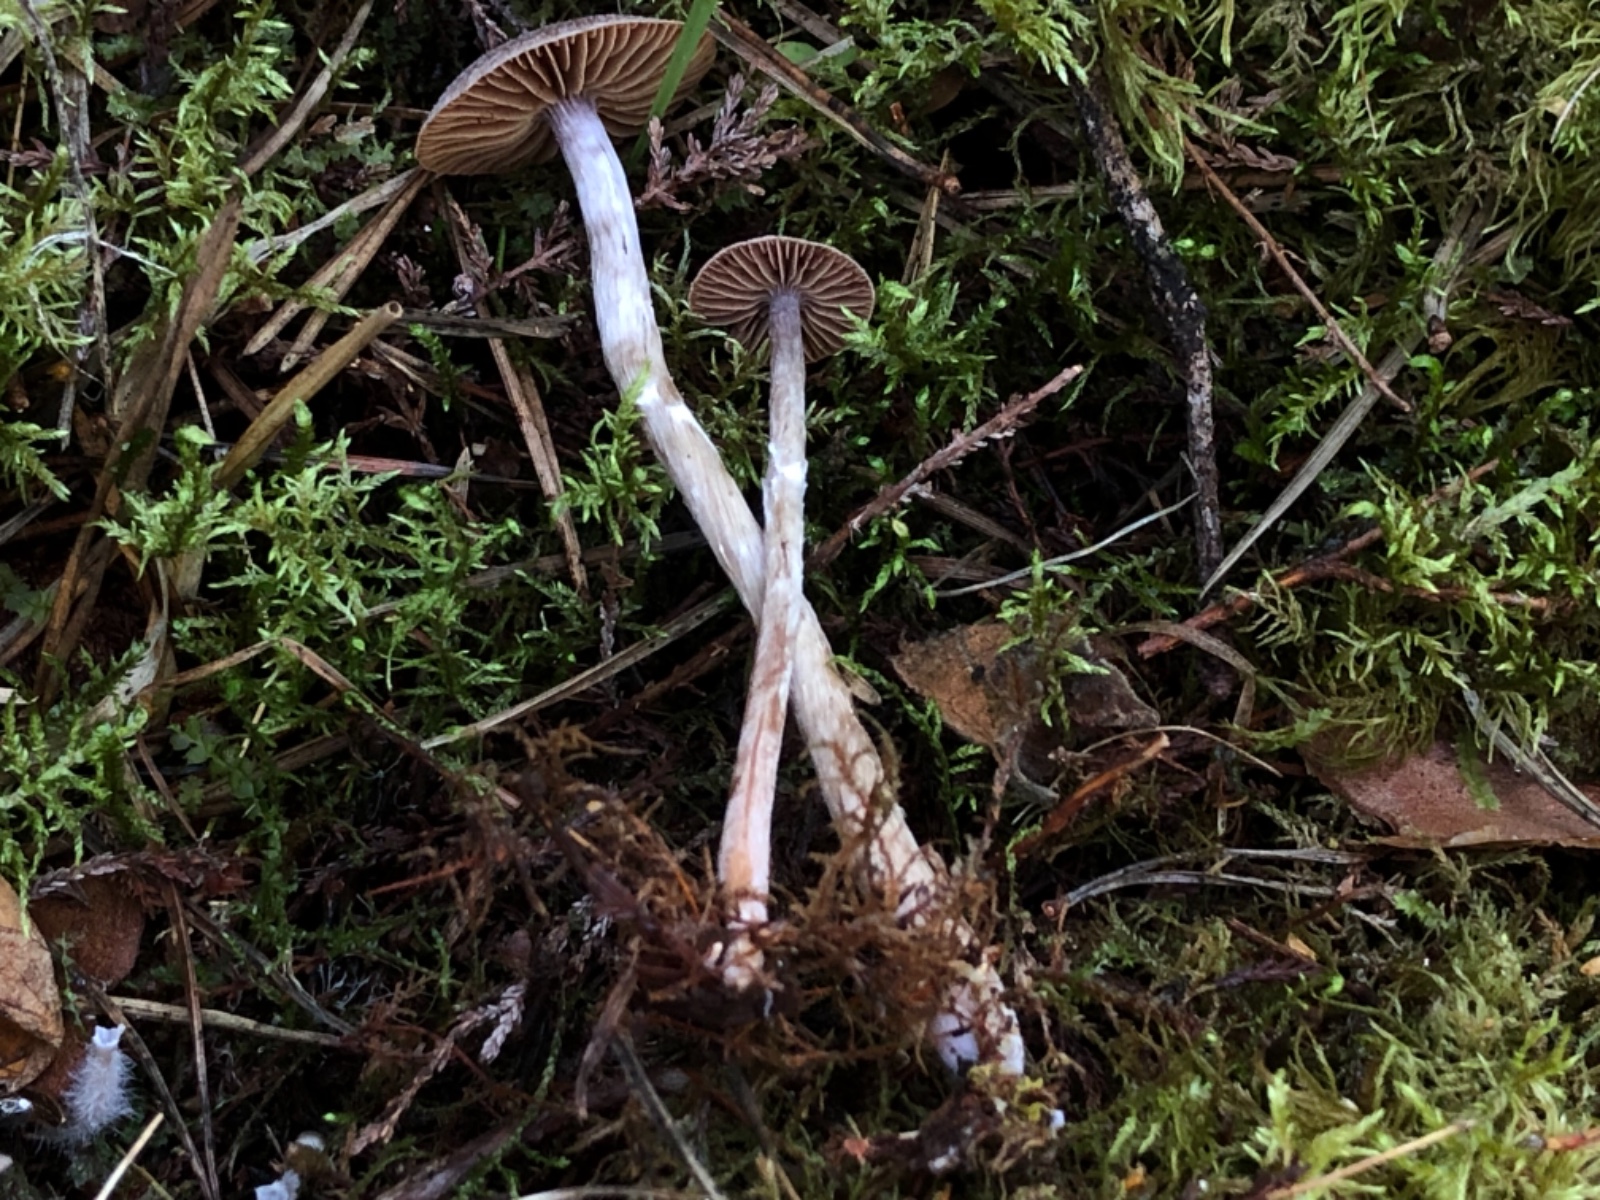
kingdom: Fungi
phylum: Basidiomycota
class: Agaricomycetes
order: Agaricales
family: Cortinariaceae
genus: Cortinarius
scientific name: Cortinarius subparvannulatus
